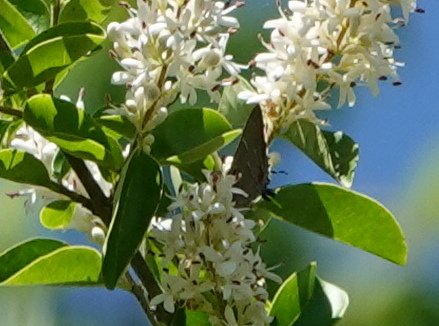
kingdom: Animalia
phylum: Arthropoda
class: Insecta
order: Lepidoptera
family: Lycaenidae
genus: Fixsenia
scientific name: Fixsenia favonius
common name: Oak Hairstreak
